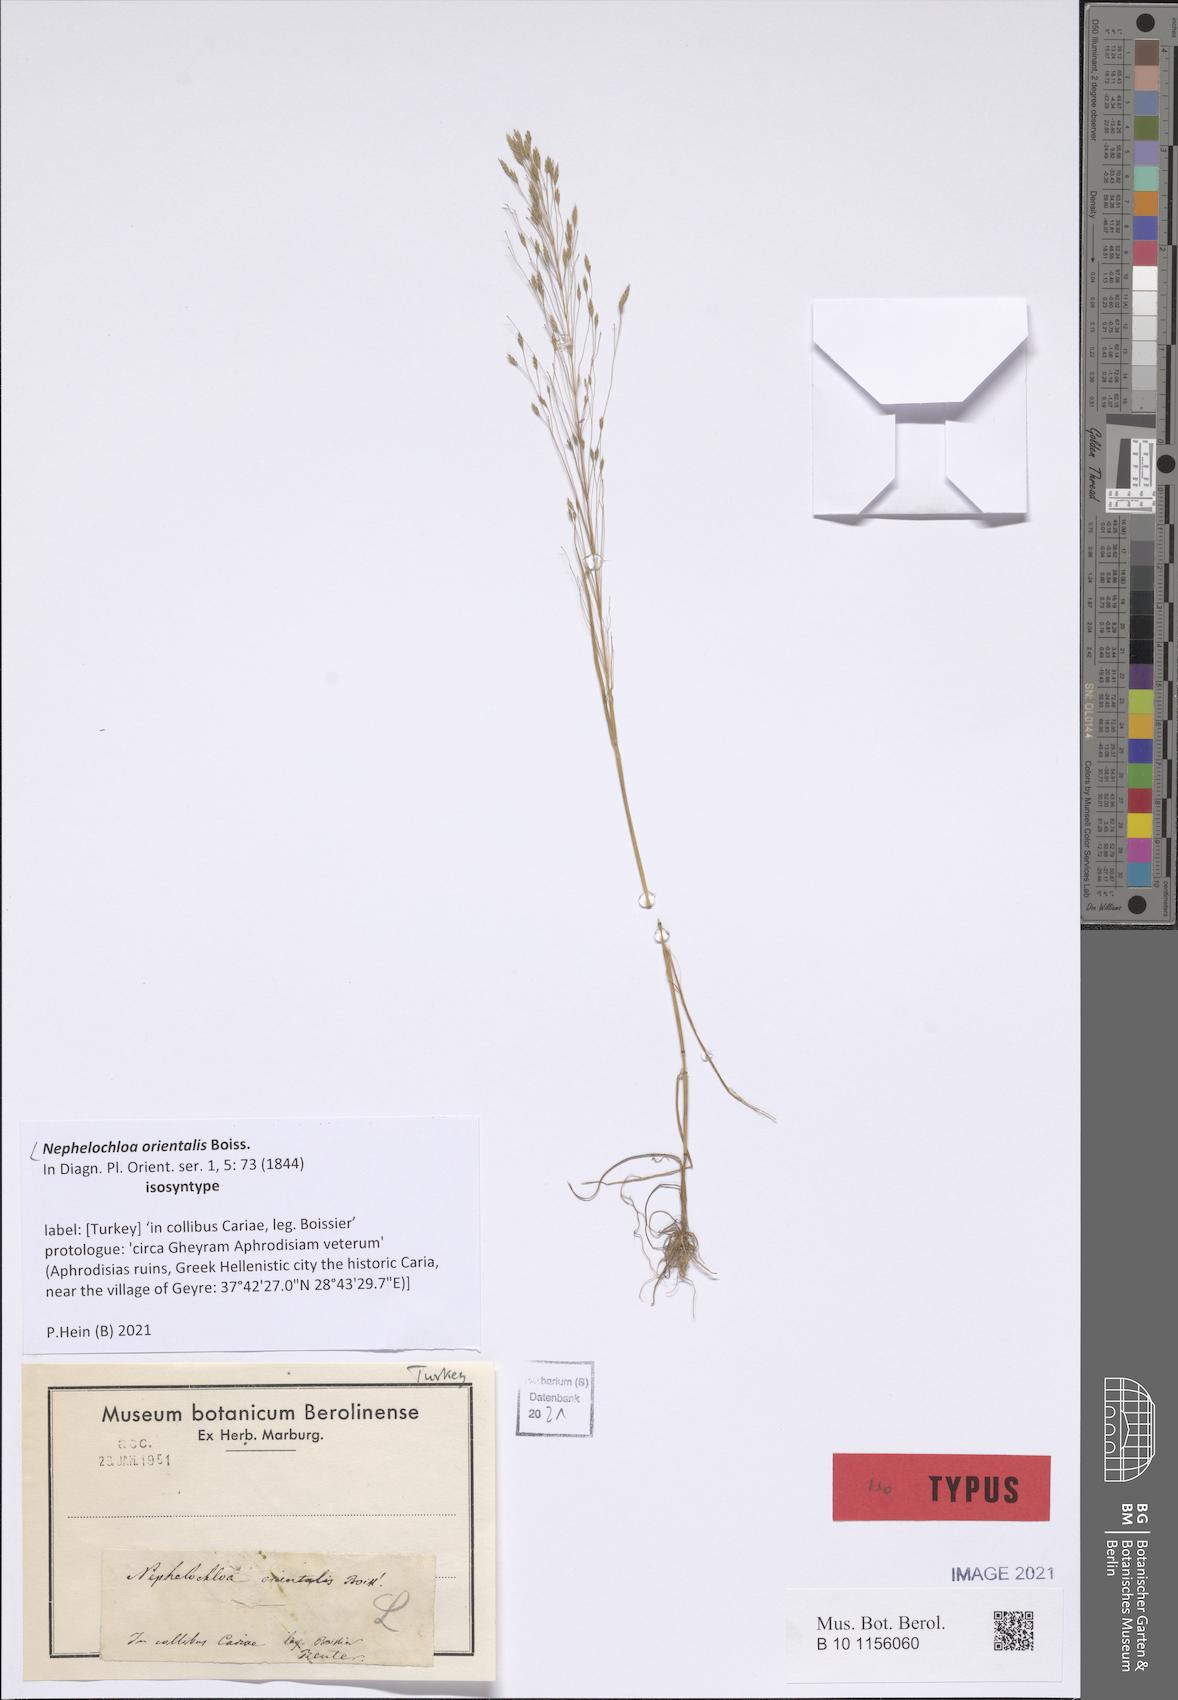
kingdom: Plantae
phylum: Tracheophyta
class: Liliopsida
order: Poales
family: Poaceae
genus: Nephelochloa
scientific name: Nephelochloa orientalis
